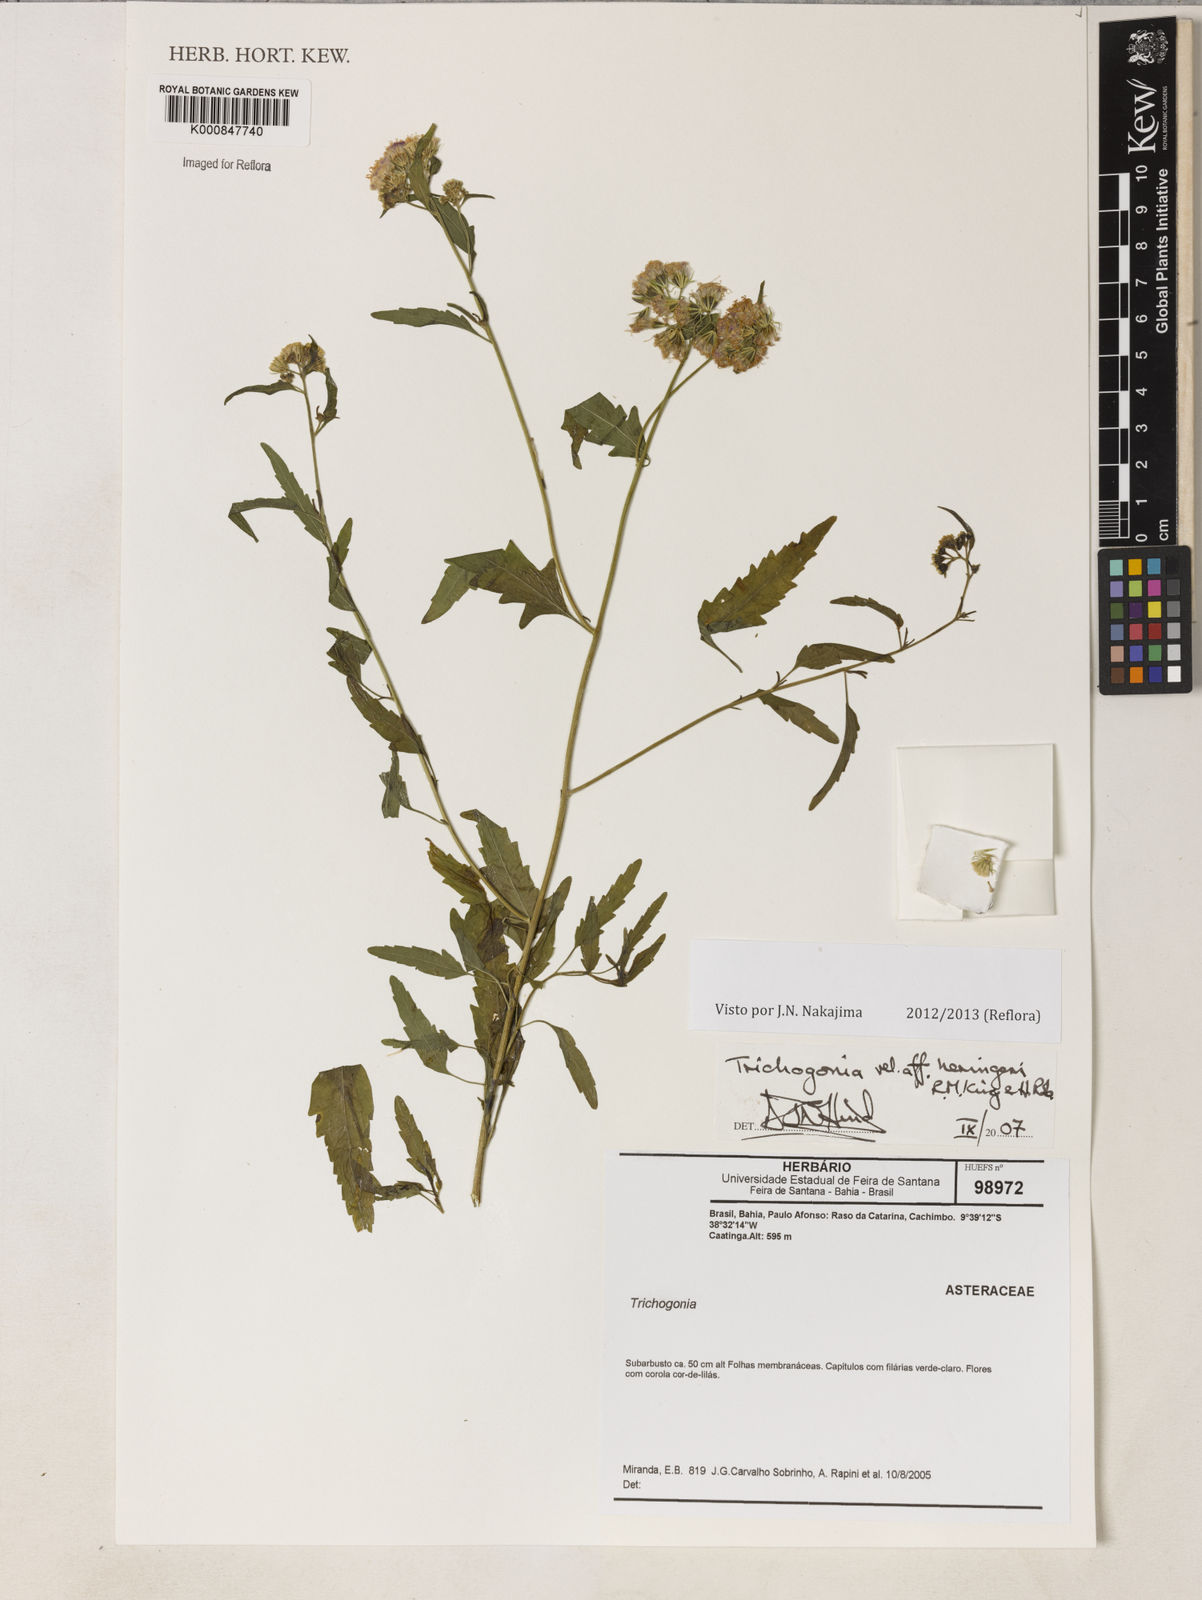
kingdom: Plantae
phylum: Tracheophyta
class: Magnoliopsida
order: Asterales
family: Asteraceae
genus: Trichogonia
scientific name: Trichogonia heringeri
